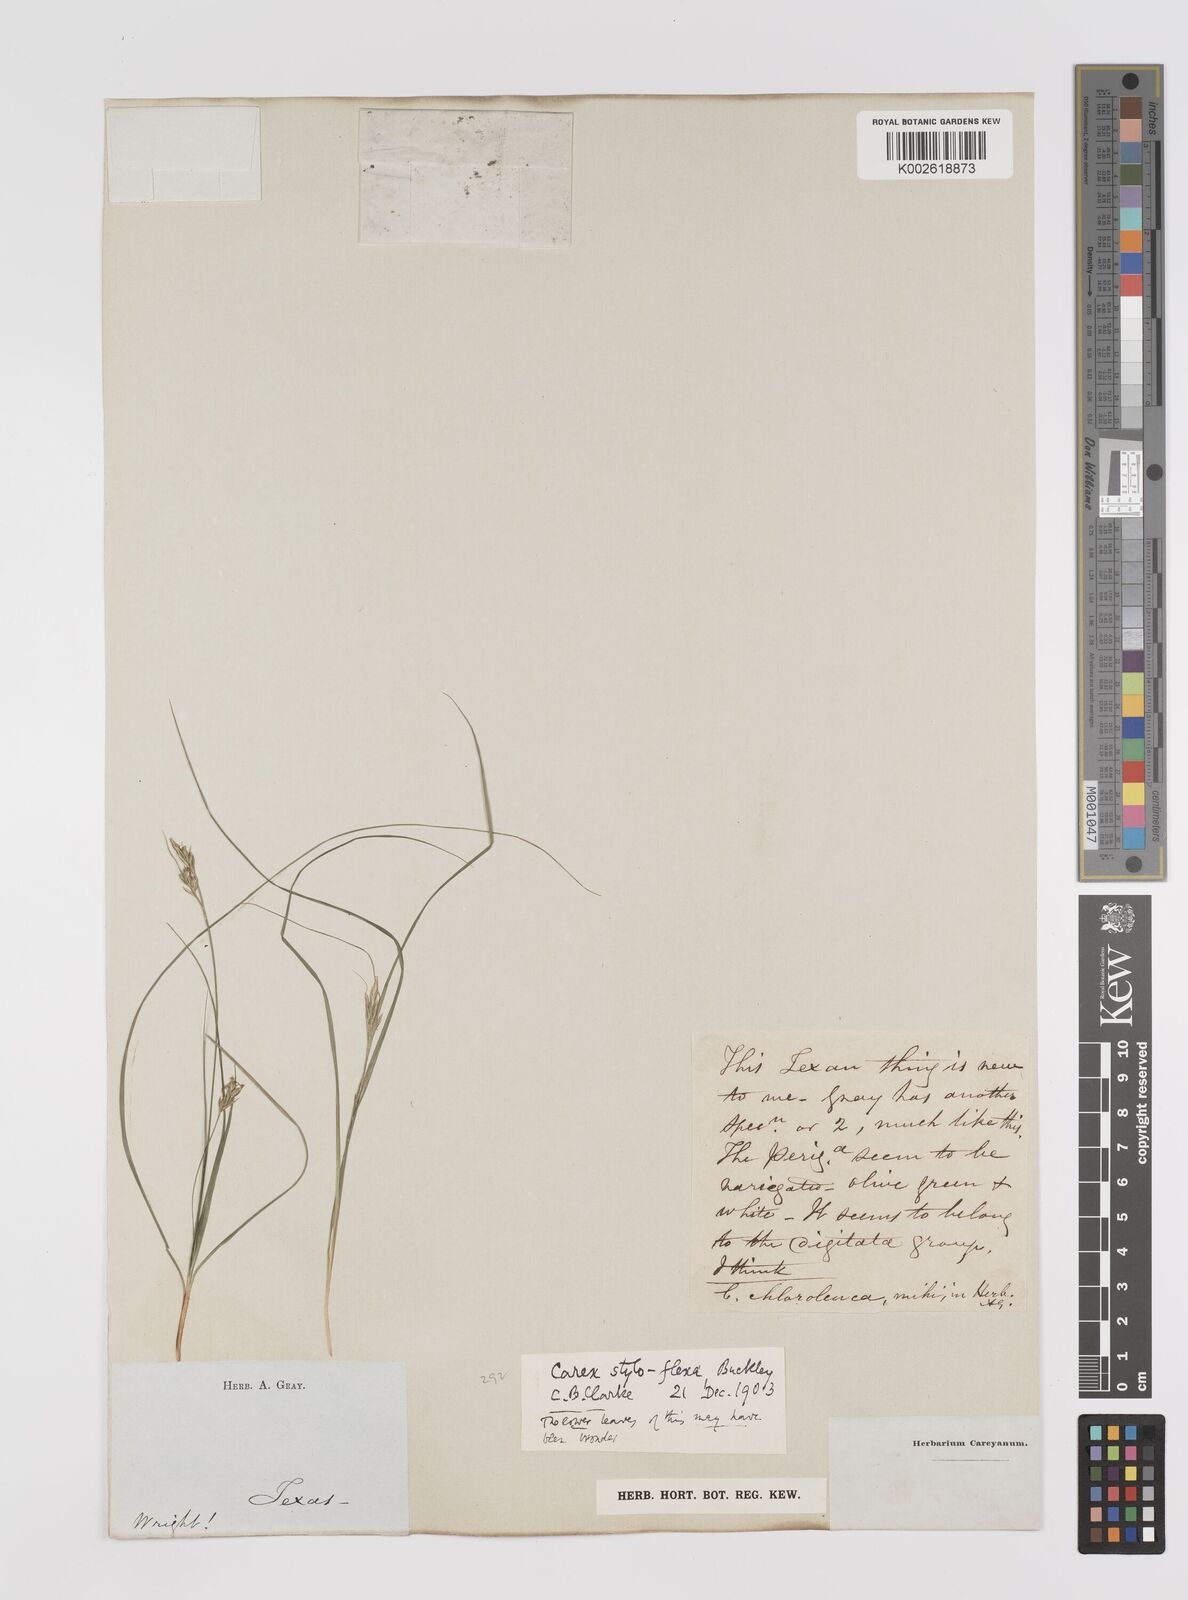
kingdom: Plantae
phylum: Tracheophyta
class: Liliopsida
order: Poales
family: Cyperaceae
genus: Carex
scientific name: Carex styloflexa
